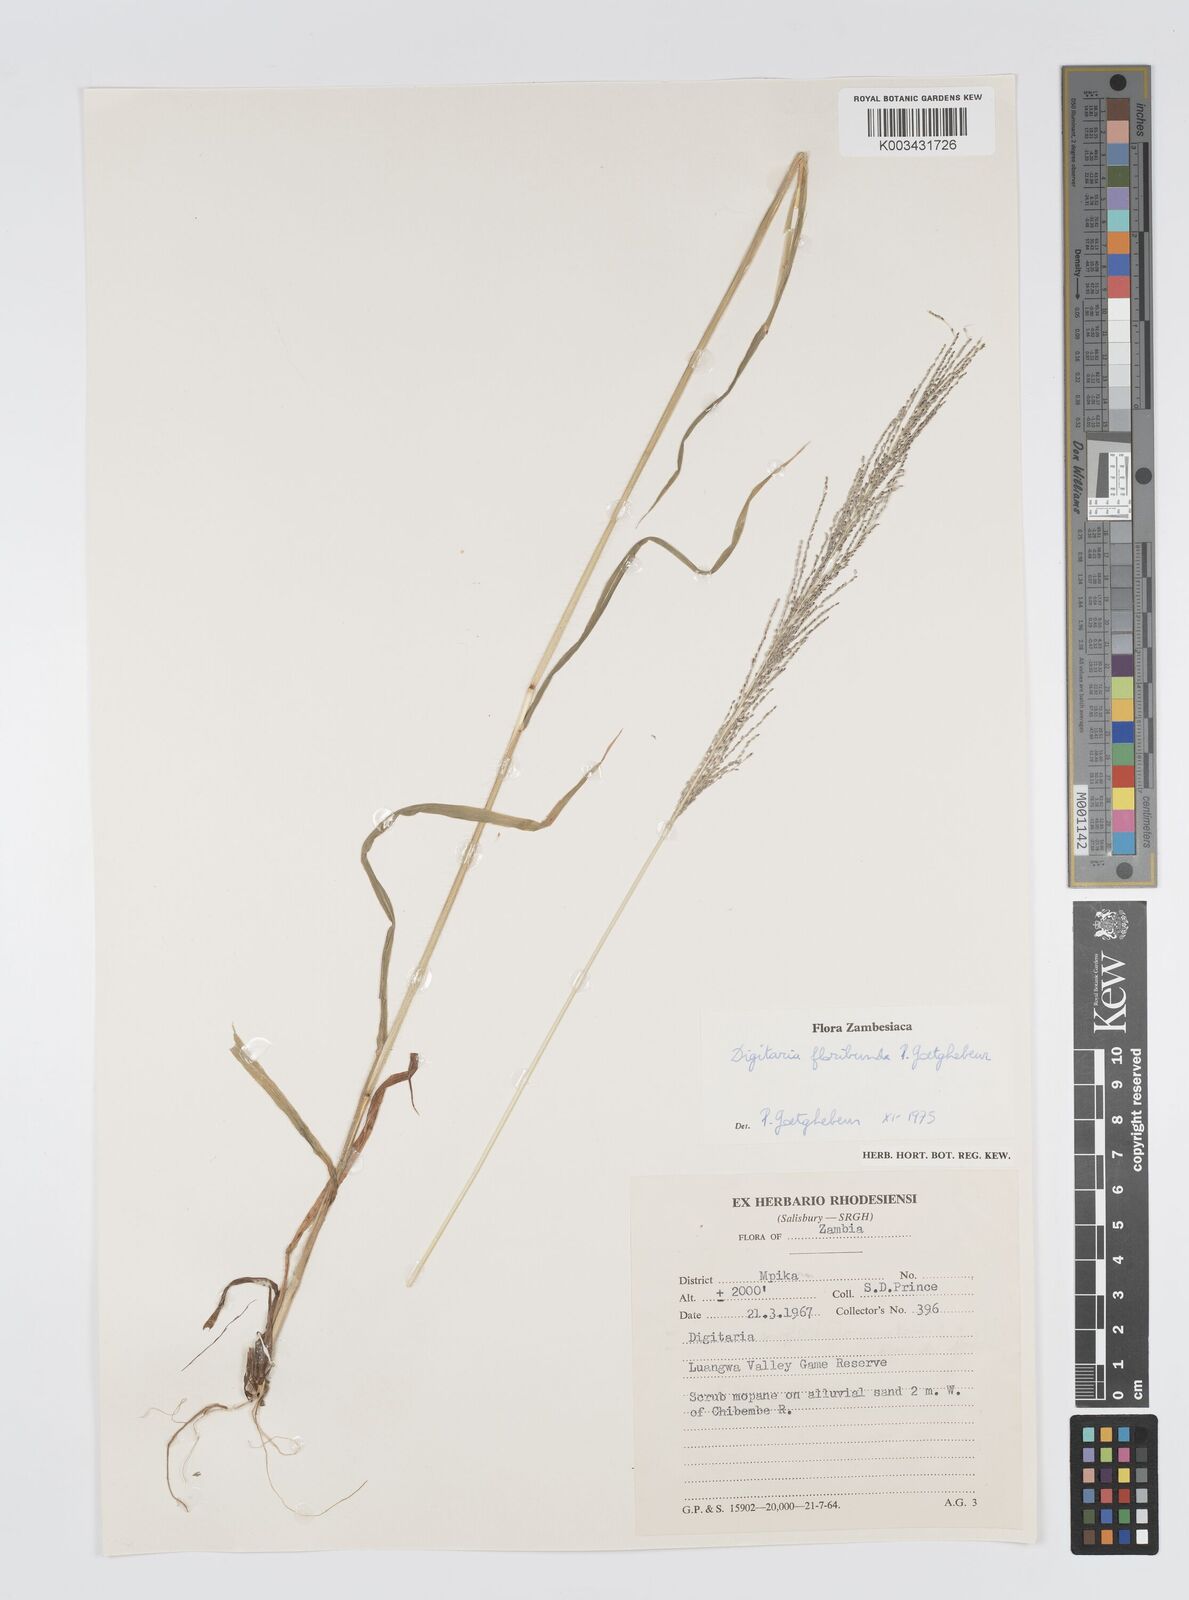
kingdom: Plantae
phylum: Tracheophyta
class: Liliopsida
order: Poales
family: Poaceae
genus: Digitaria
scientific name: Digitaria perrottetii
